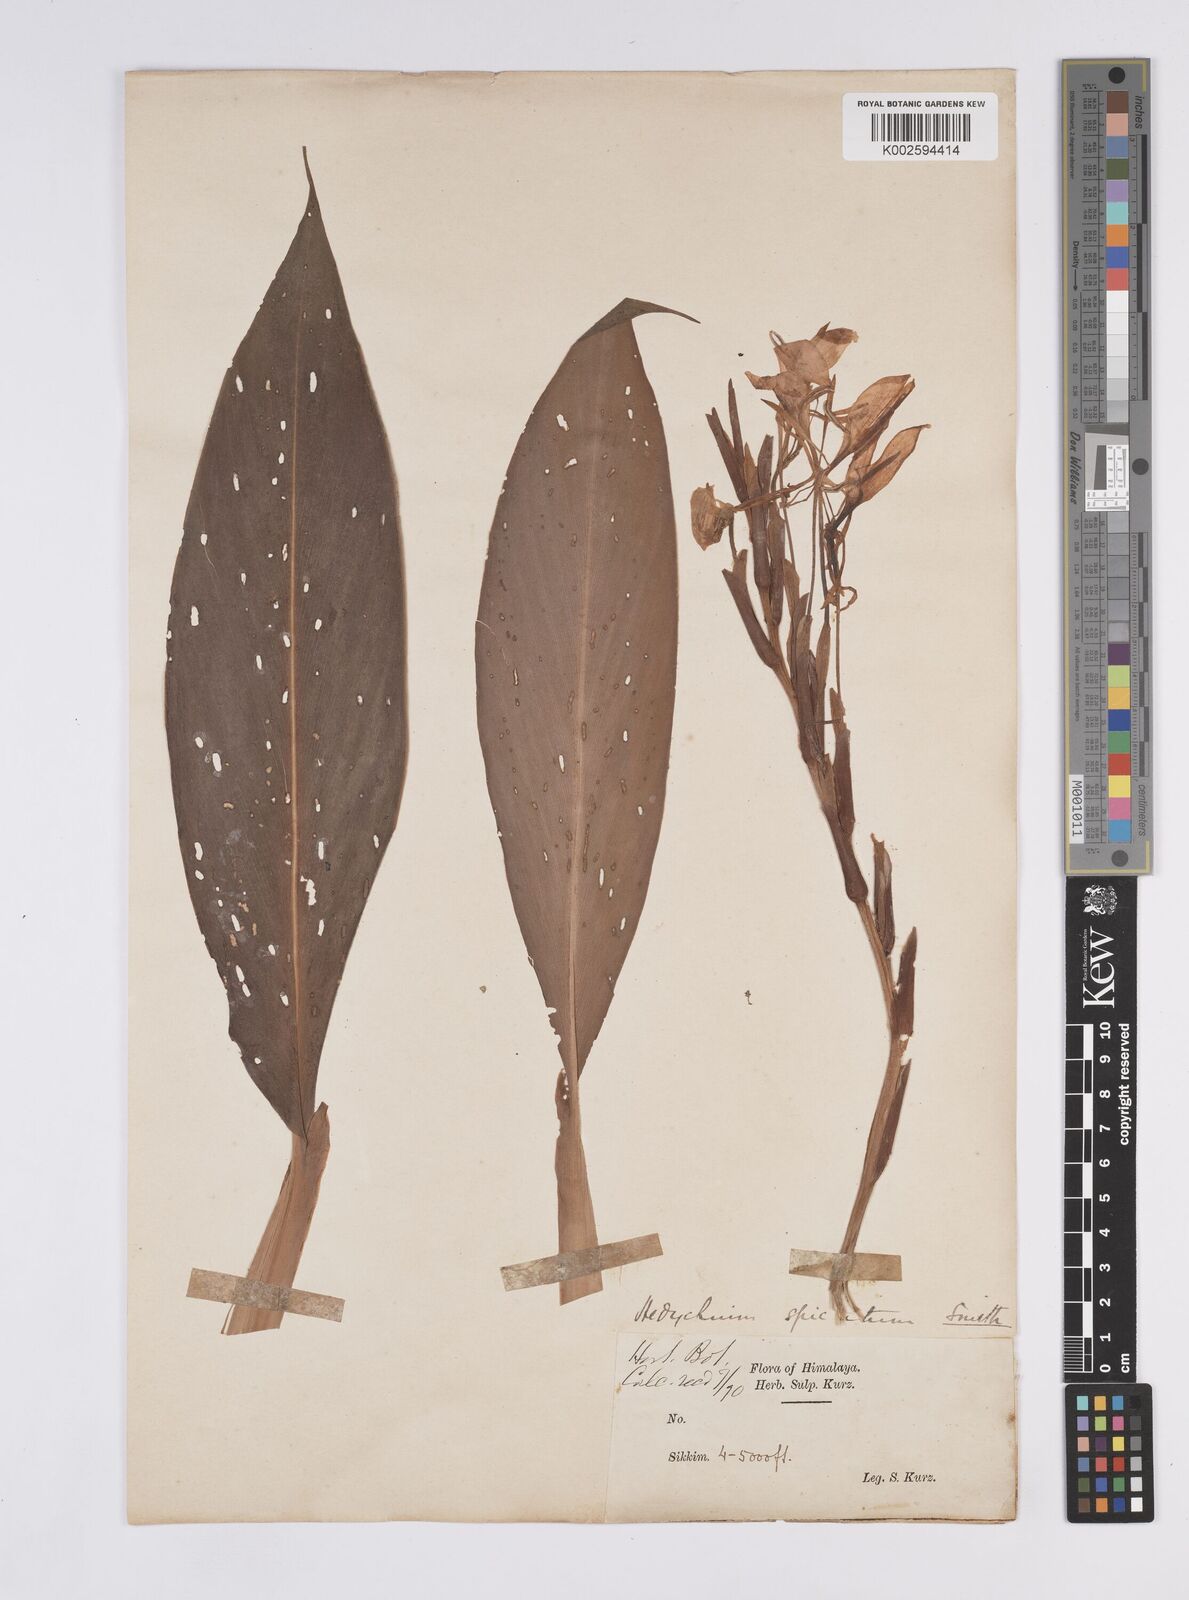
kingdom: Plantae
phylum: Tracheophyta
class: Liliopsida
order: Zingiberales
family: Zingiberaceae
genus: Hedychium
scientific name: Hedychium spicatum
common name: Spiked ginger-lily
